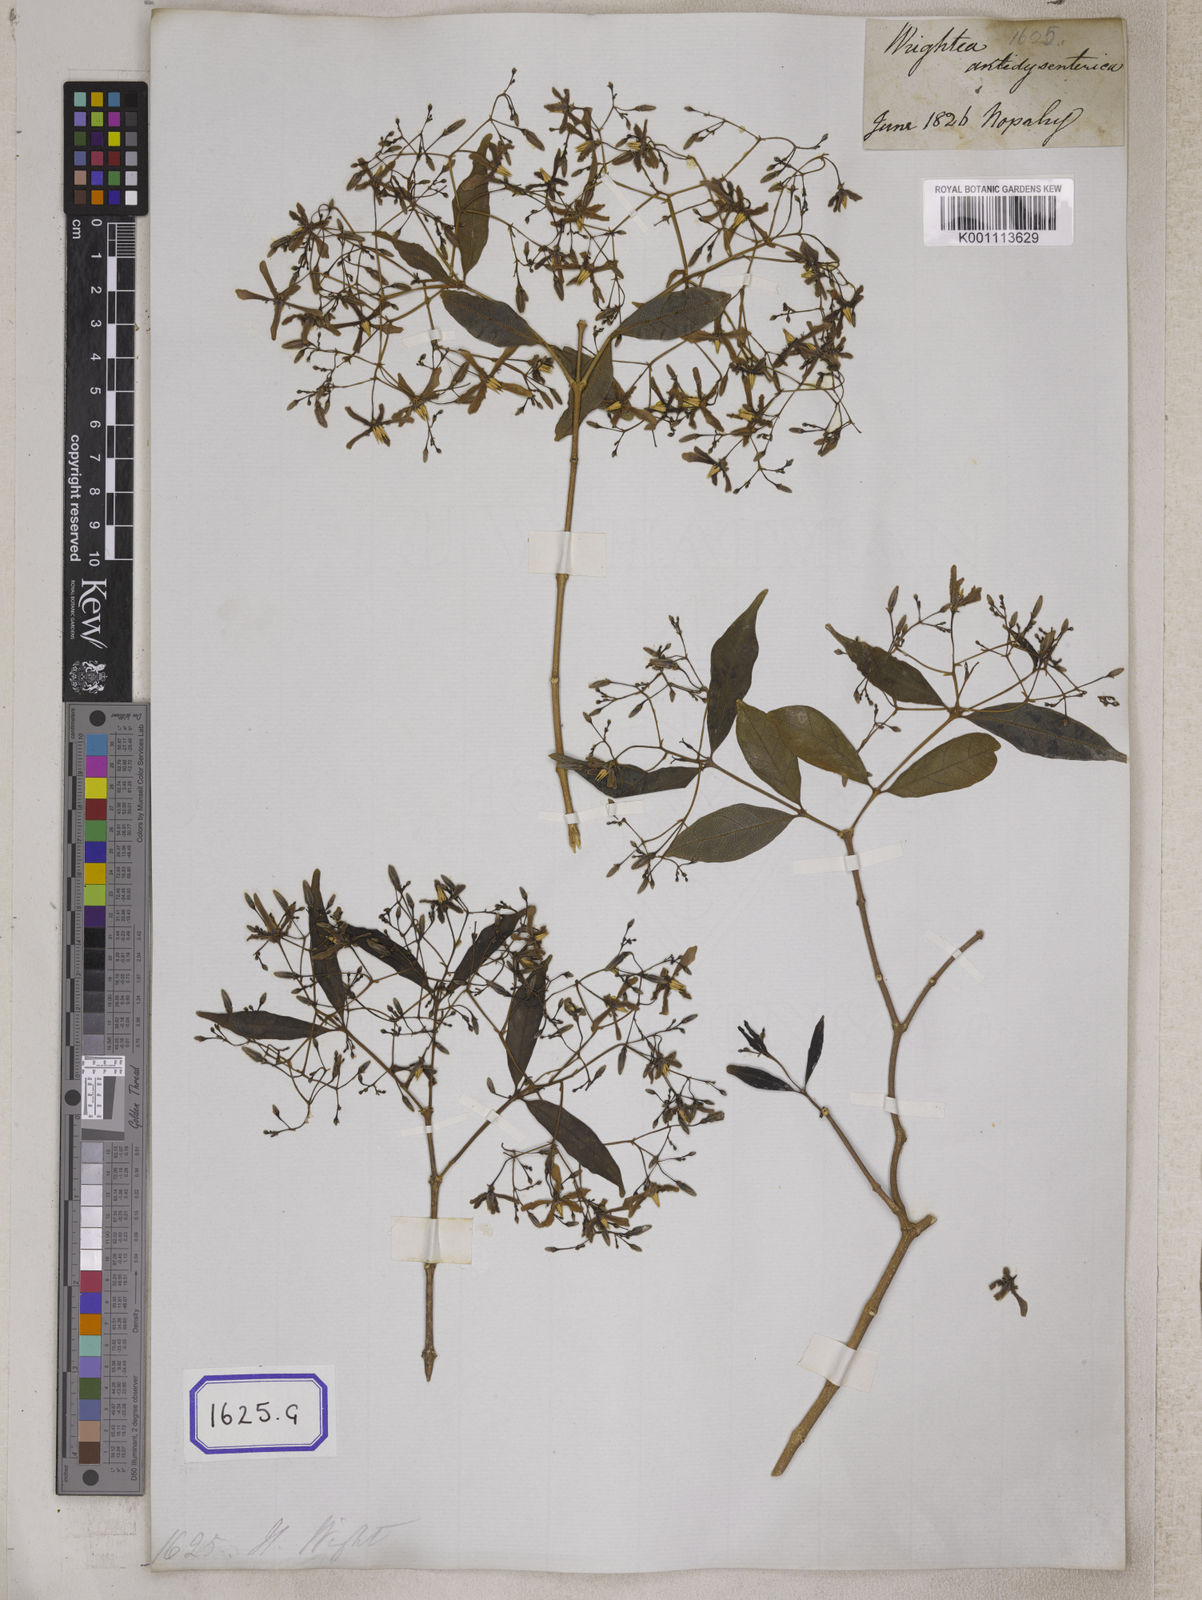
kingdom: Plantae
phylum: Tracheophyta
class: Magnoliopsida
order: Gentianales
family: Apocynaceae
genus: Wrightia
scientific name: Wrightia tinctoria
